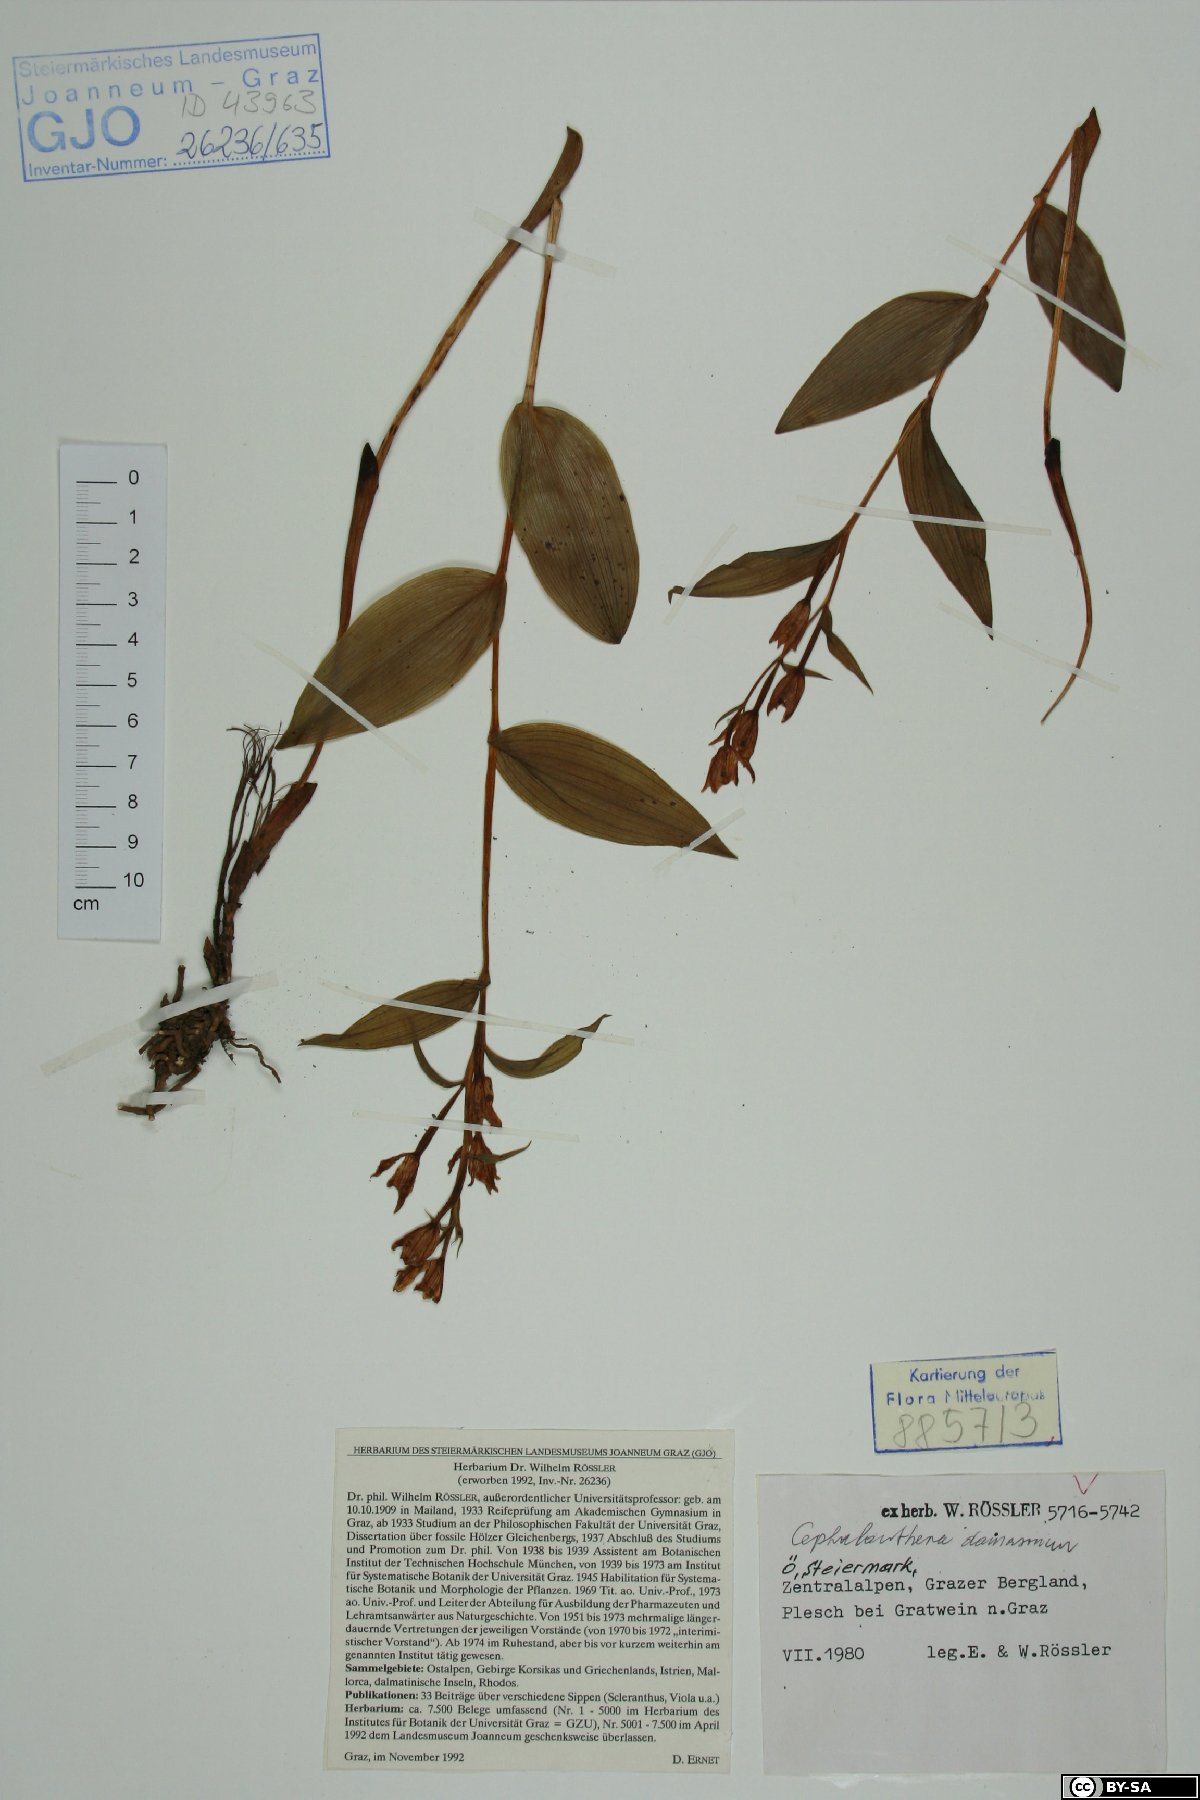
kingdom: Plantae
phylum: Tracheophyta
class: Liliopsida
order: Asparagales
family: Orchidaceae
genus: Cephalanthera
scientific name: Cephalanthera damasonium
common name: White helleborine
